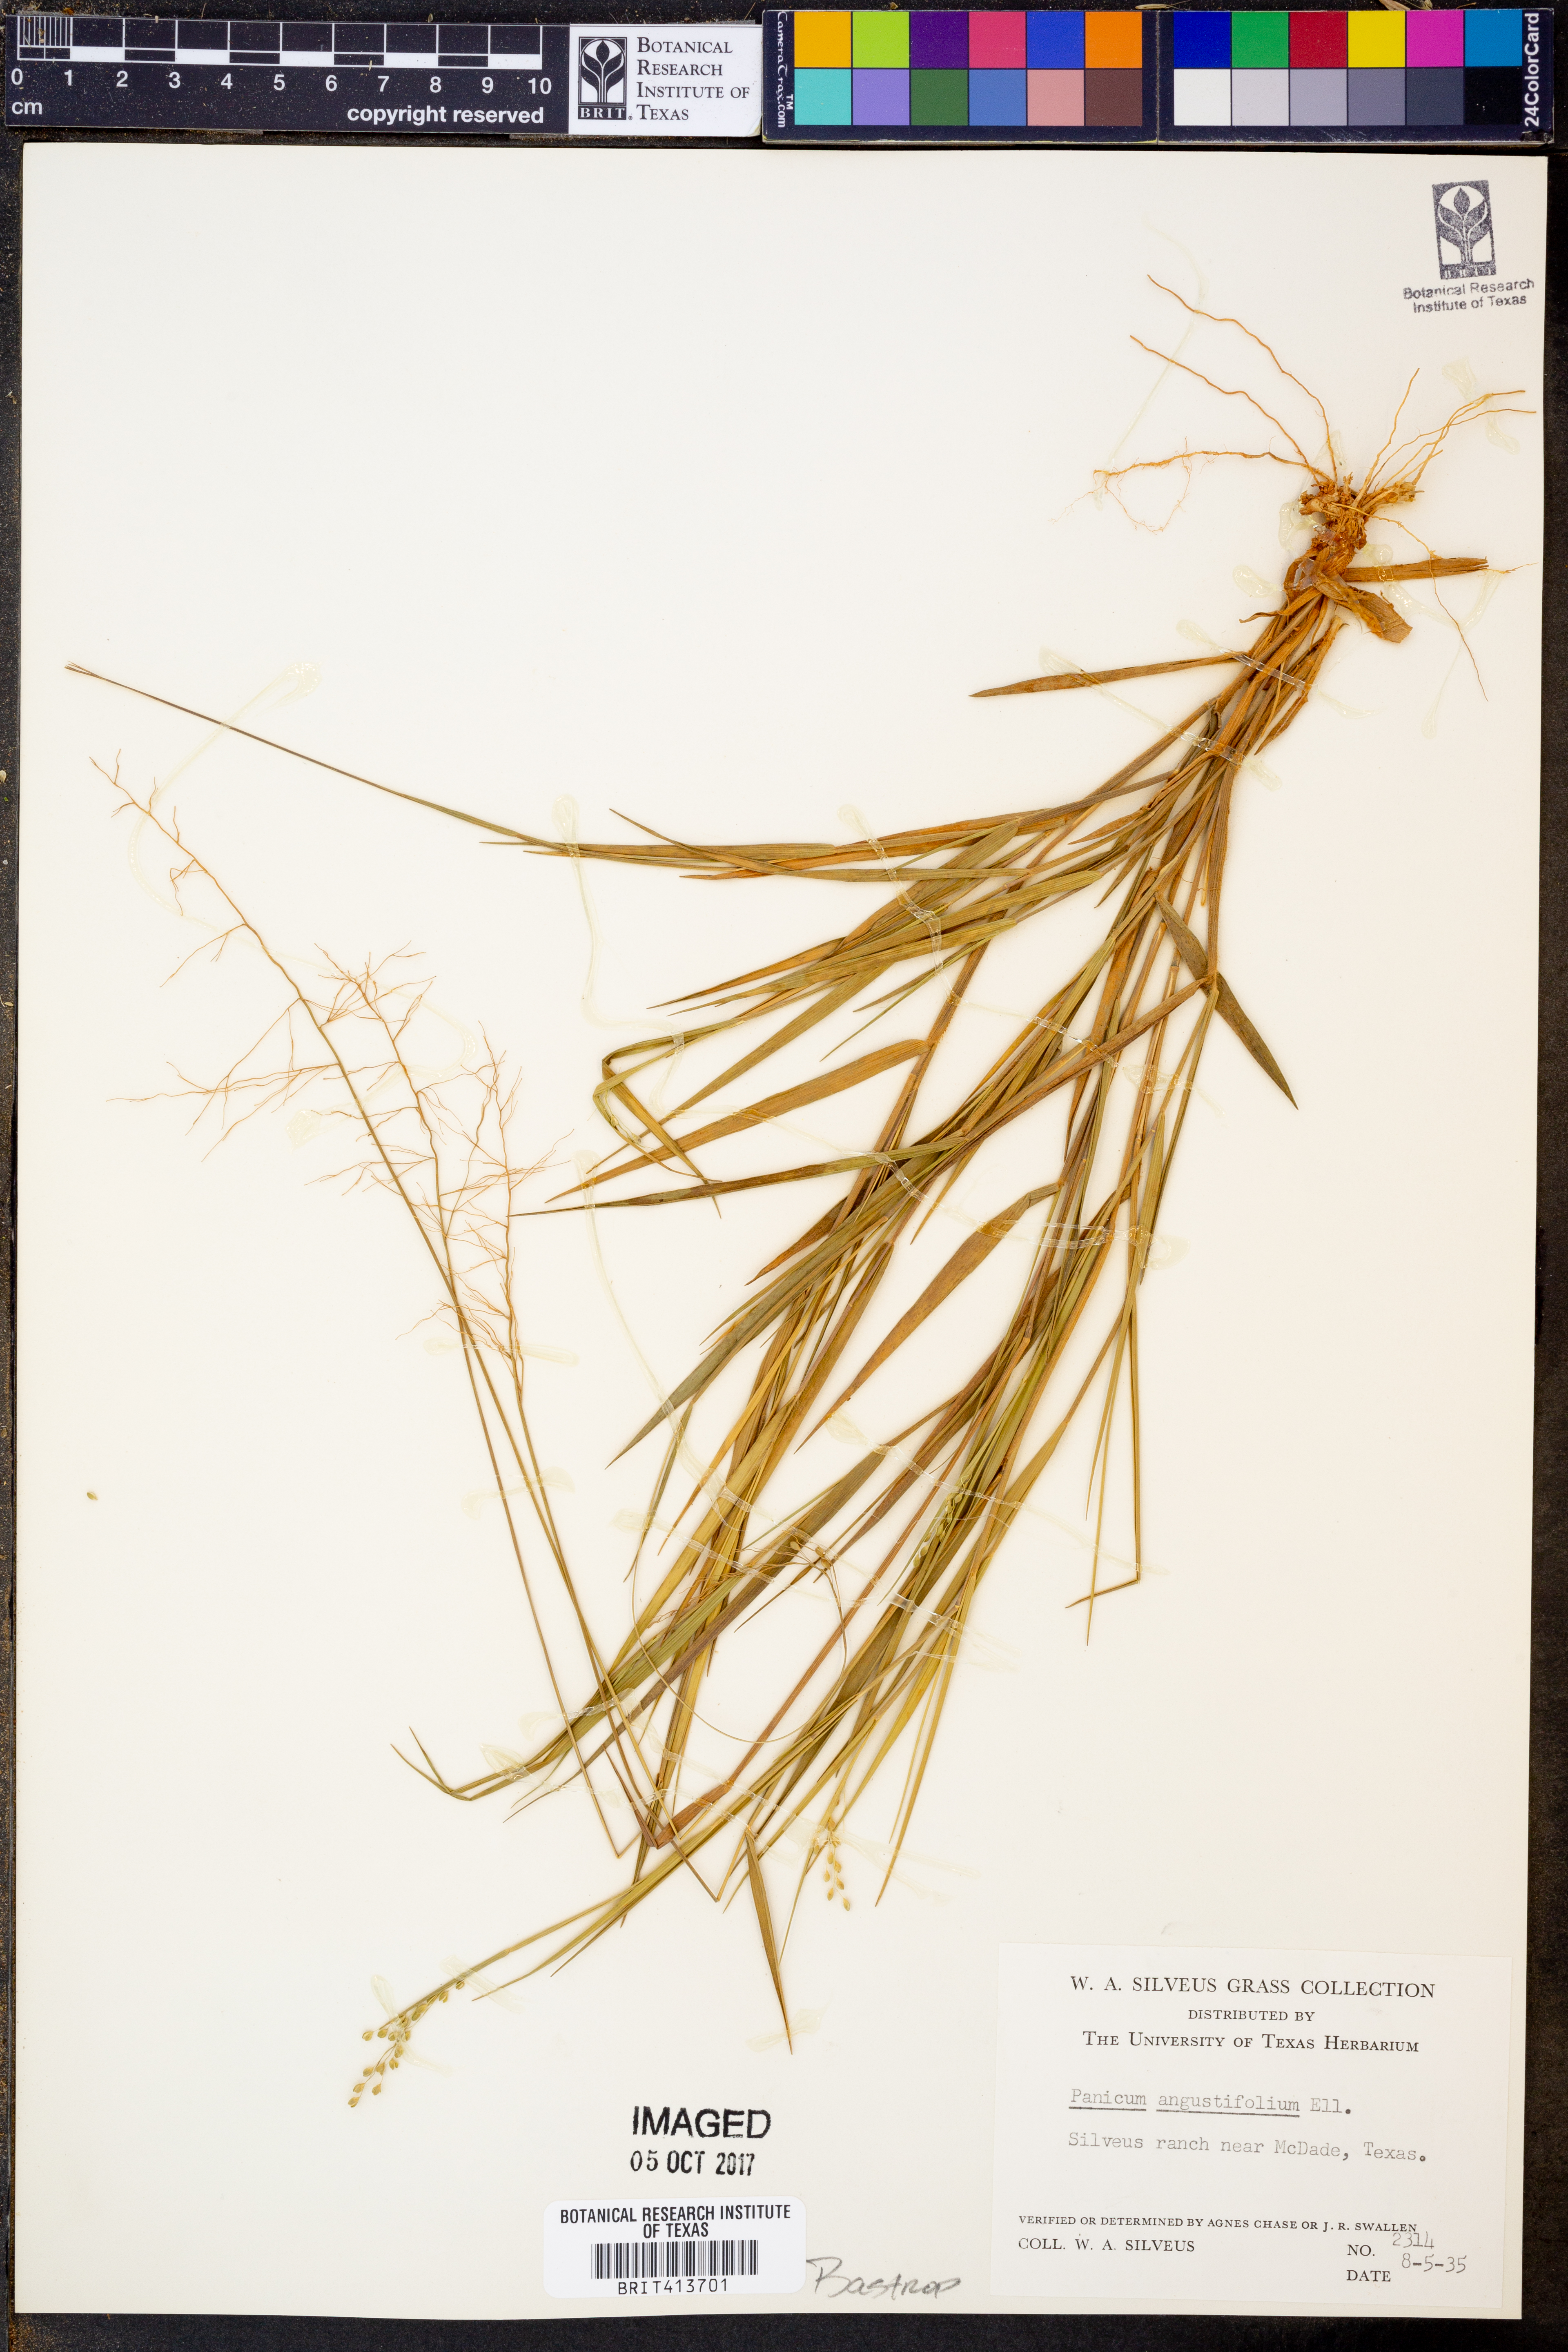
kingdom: Plantae
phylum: Tracheophyta
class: Liliopsida
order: Poales
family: Poaceae
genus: Dichanthelium
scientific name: Dichanthelium dichotomum
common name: Cypress panicgrass
